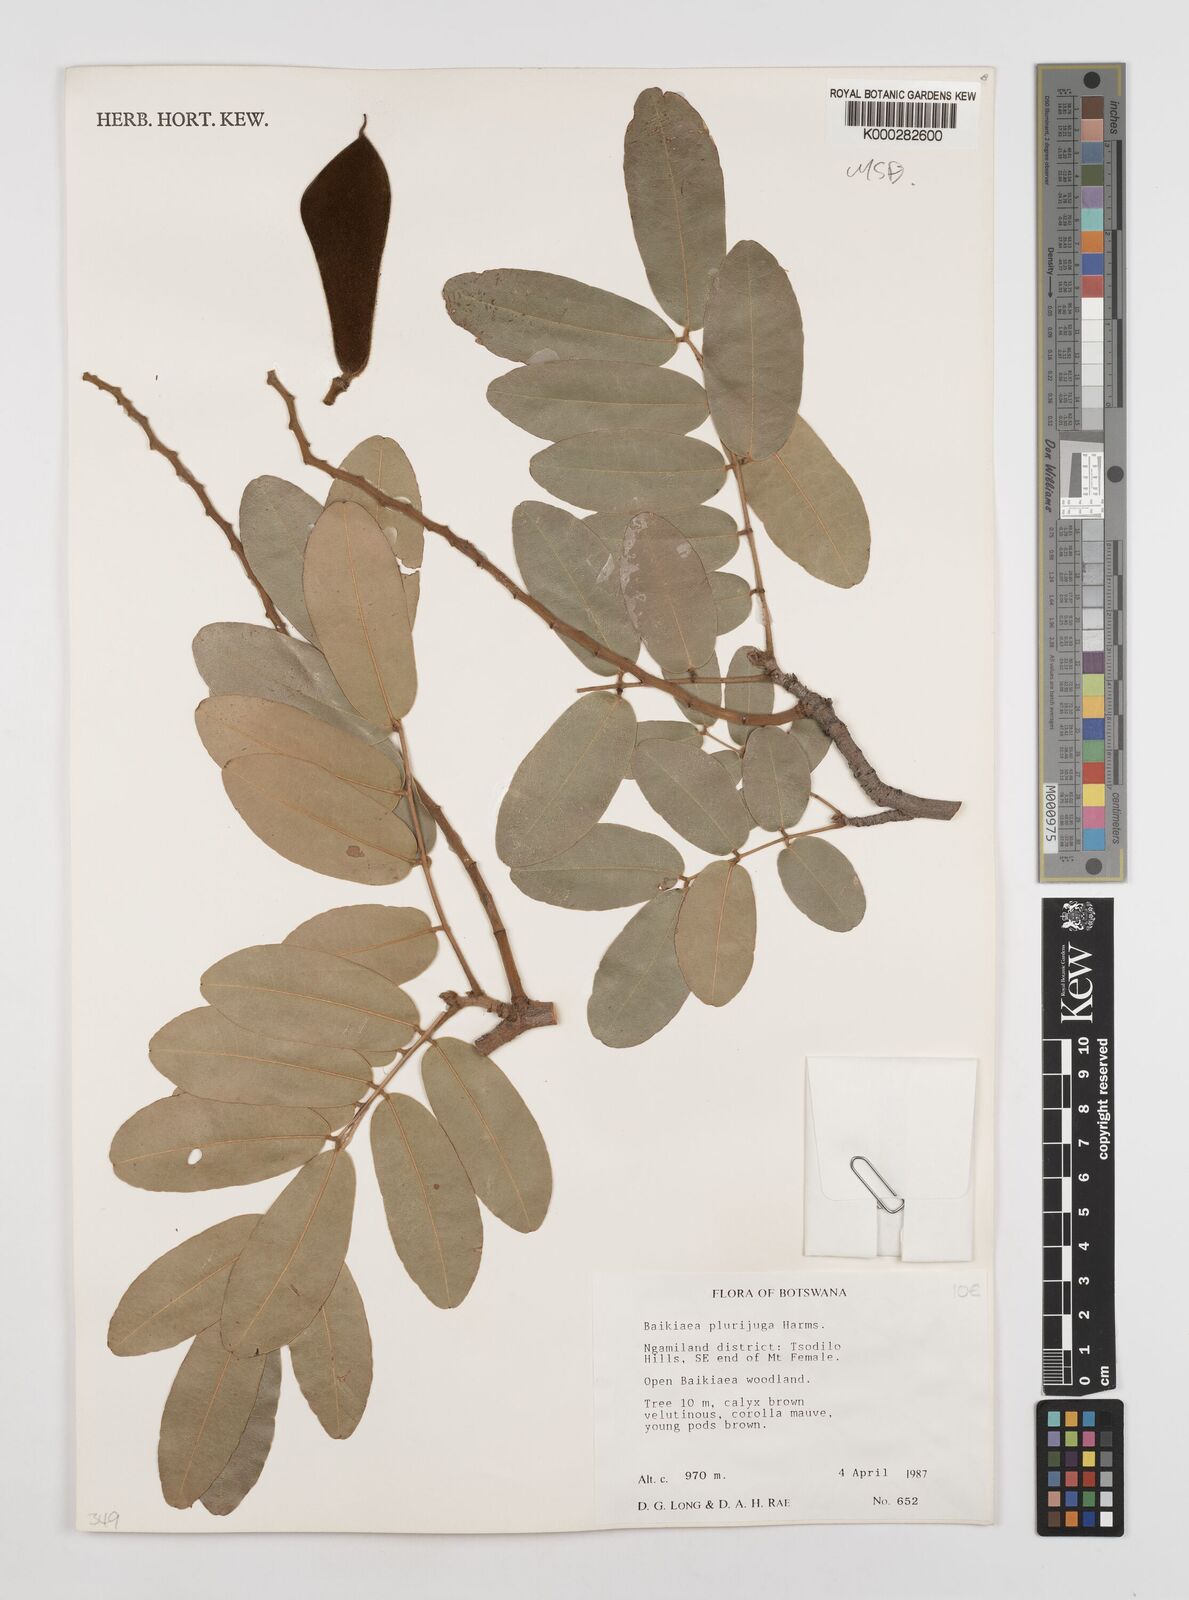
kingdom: Plantae
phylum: Tracheophyta
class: Magnoliopsida
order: Fabales
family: Fabaceae
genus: Baikiaea
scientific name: Baikiaea plurijuga
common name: Rhodesian-teak
